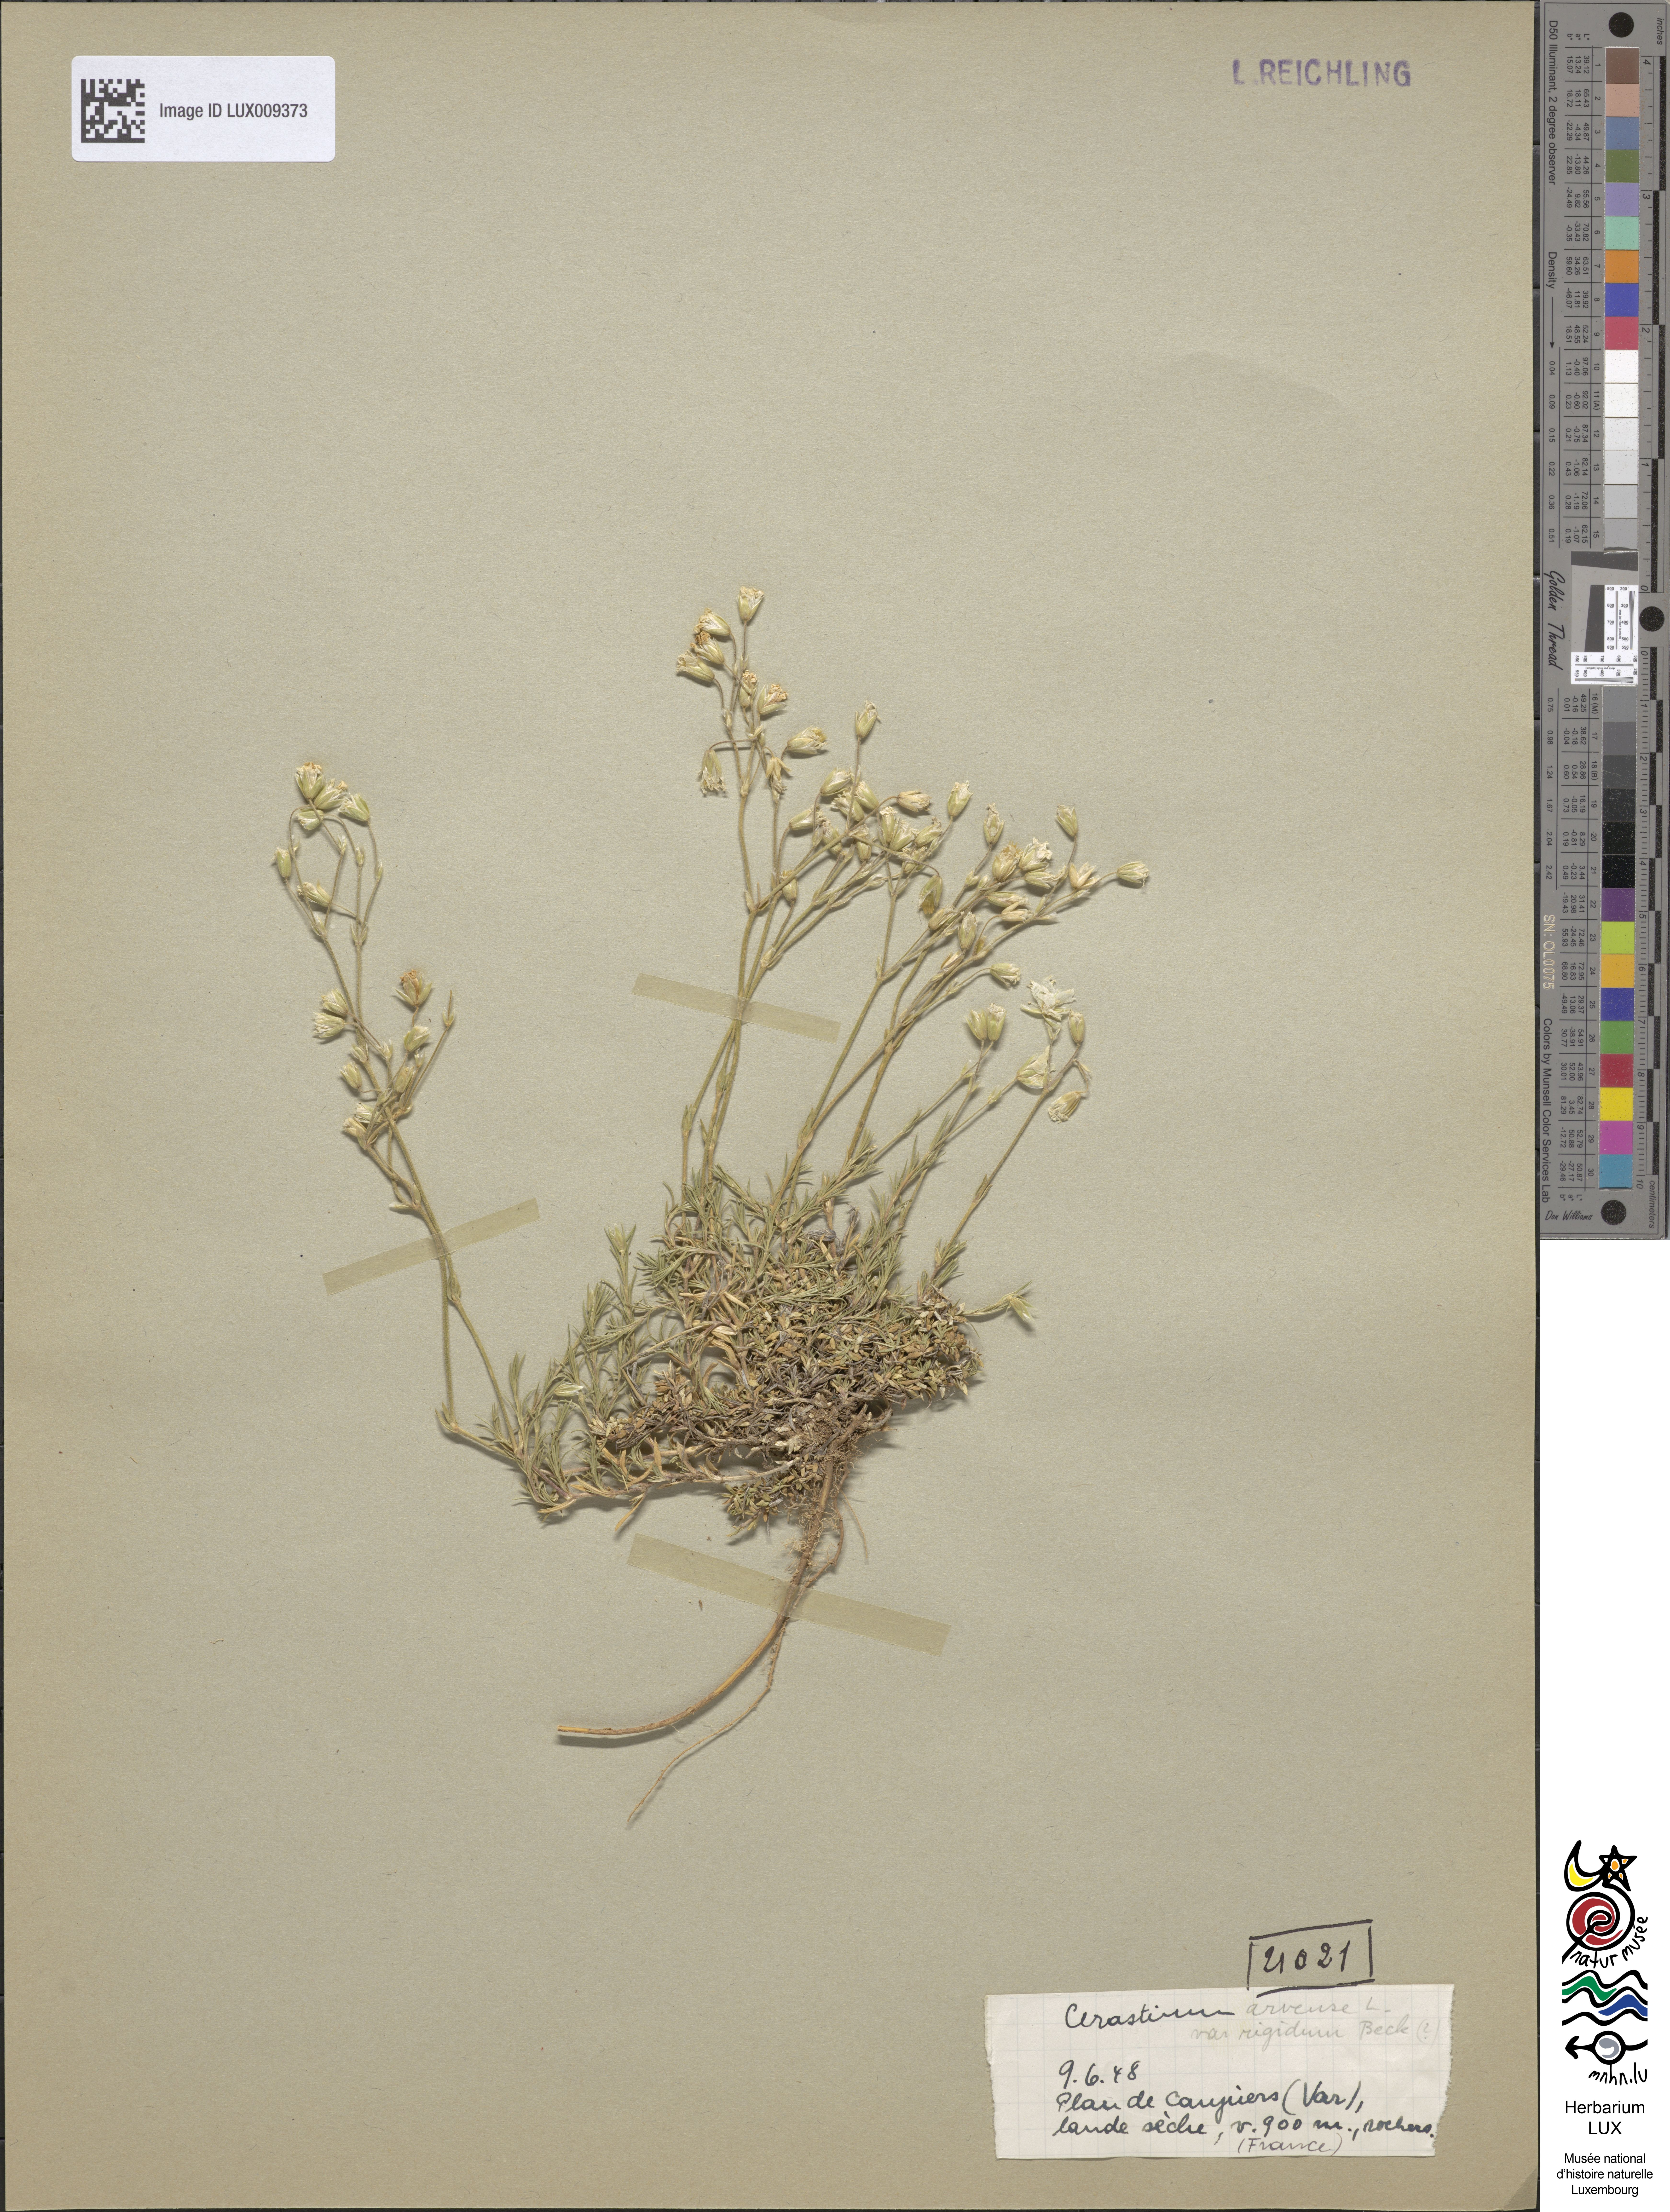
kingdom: Plantae
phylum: Tracheophyta
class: Magnoliopsida
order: Caryophyllales
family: Caryophyllaceae
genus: Cerastium
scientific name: Cerastium arvense
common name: Field mouse-ear
